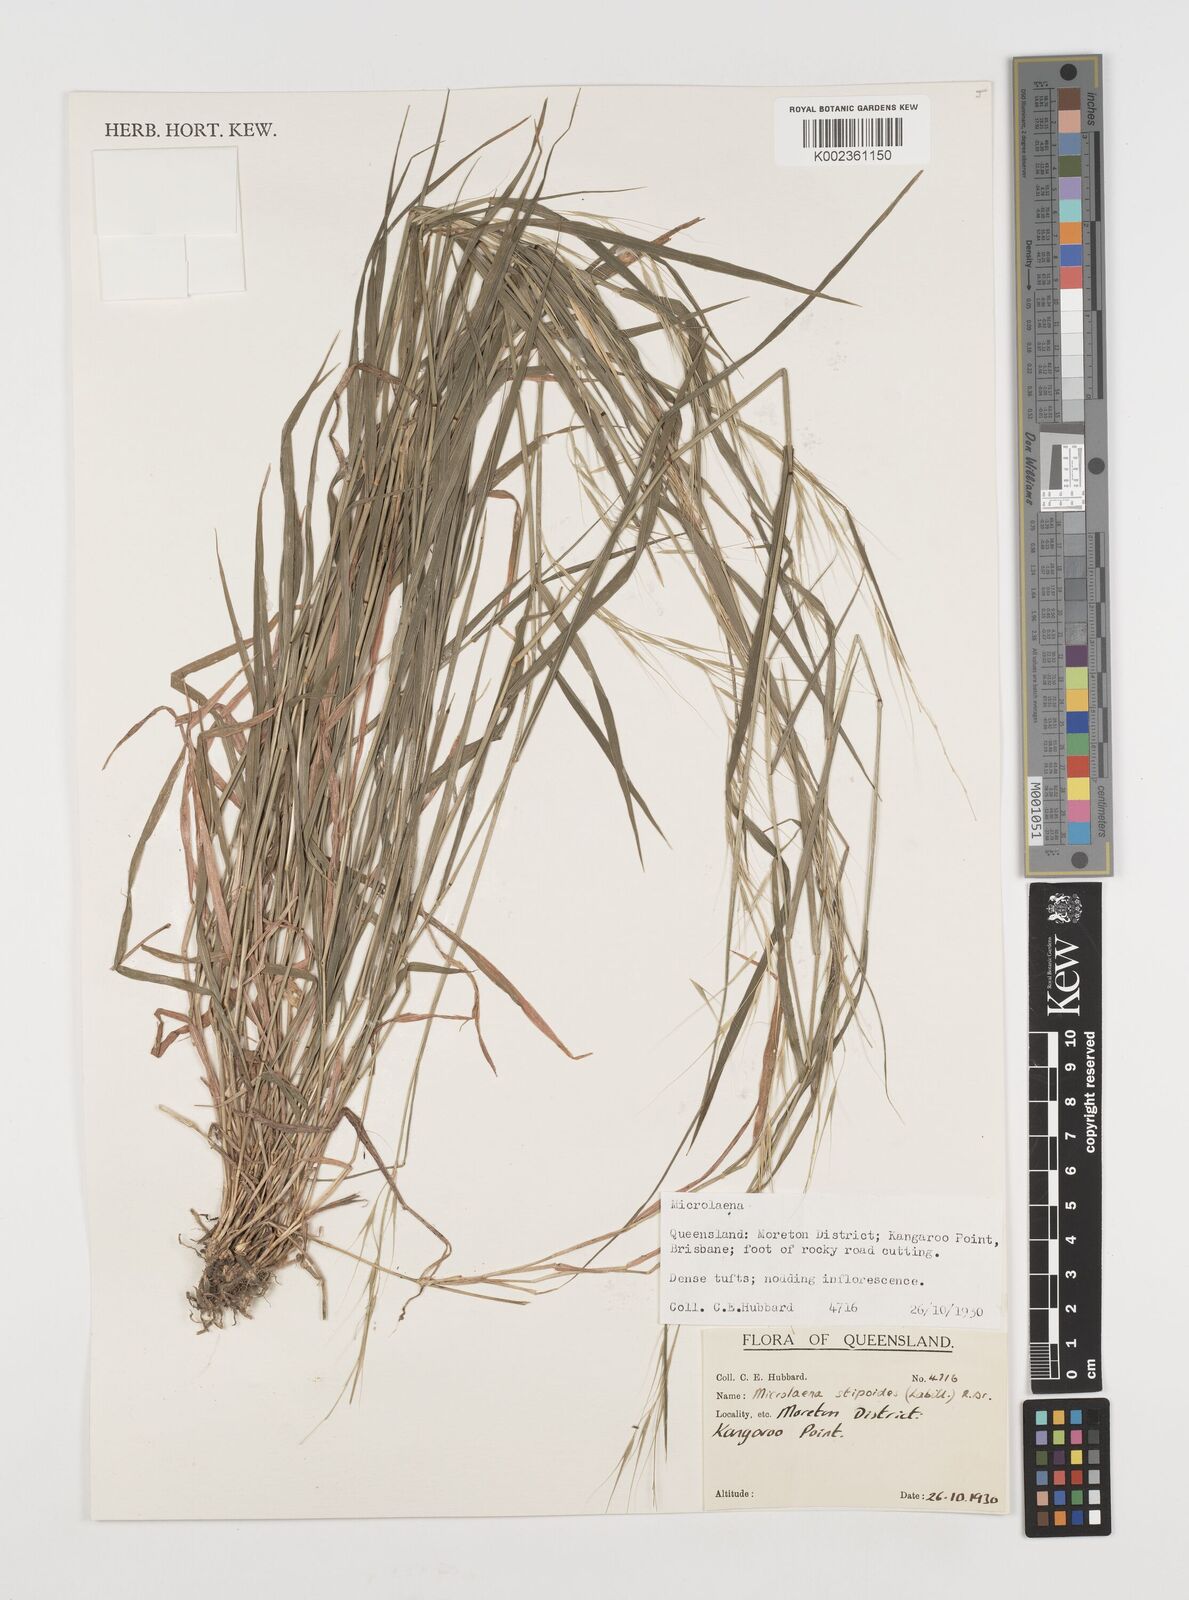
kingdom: Plantae
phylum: Tracheophyta
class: Liliopsida
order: Poales
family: Poaceae
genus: Microlaena
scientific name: Microlaena stipoides
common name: Meadow ricegrass
